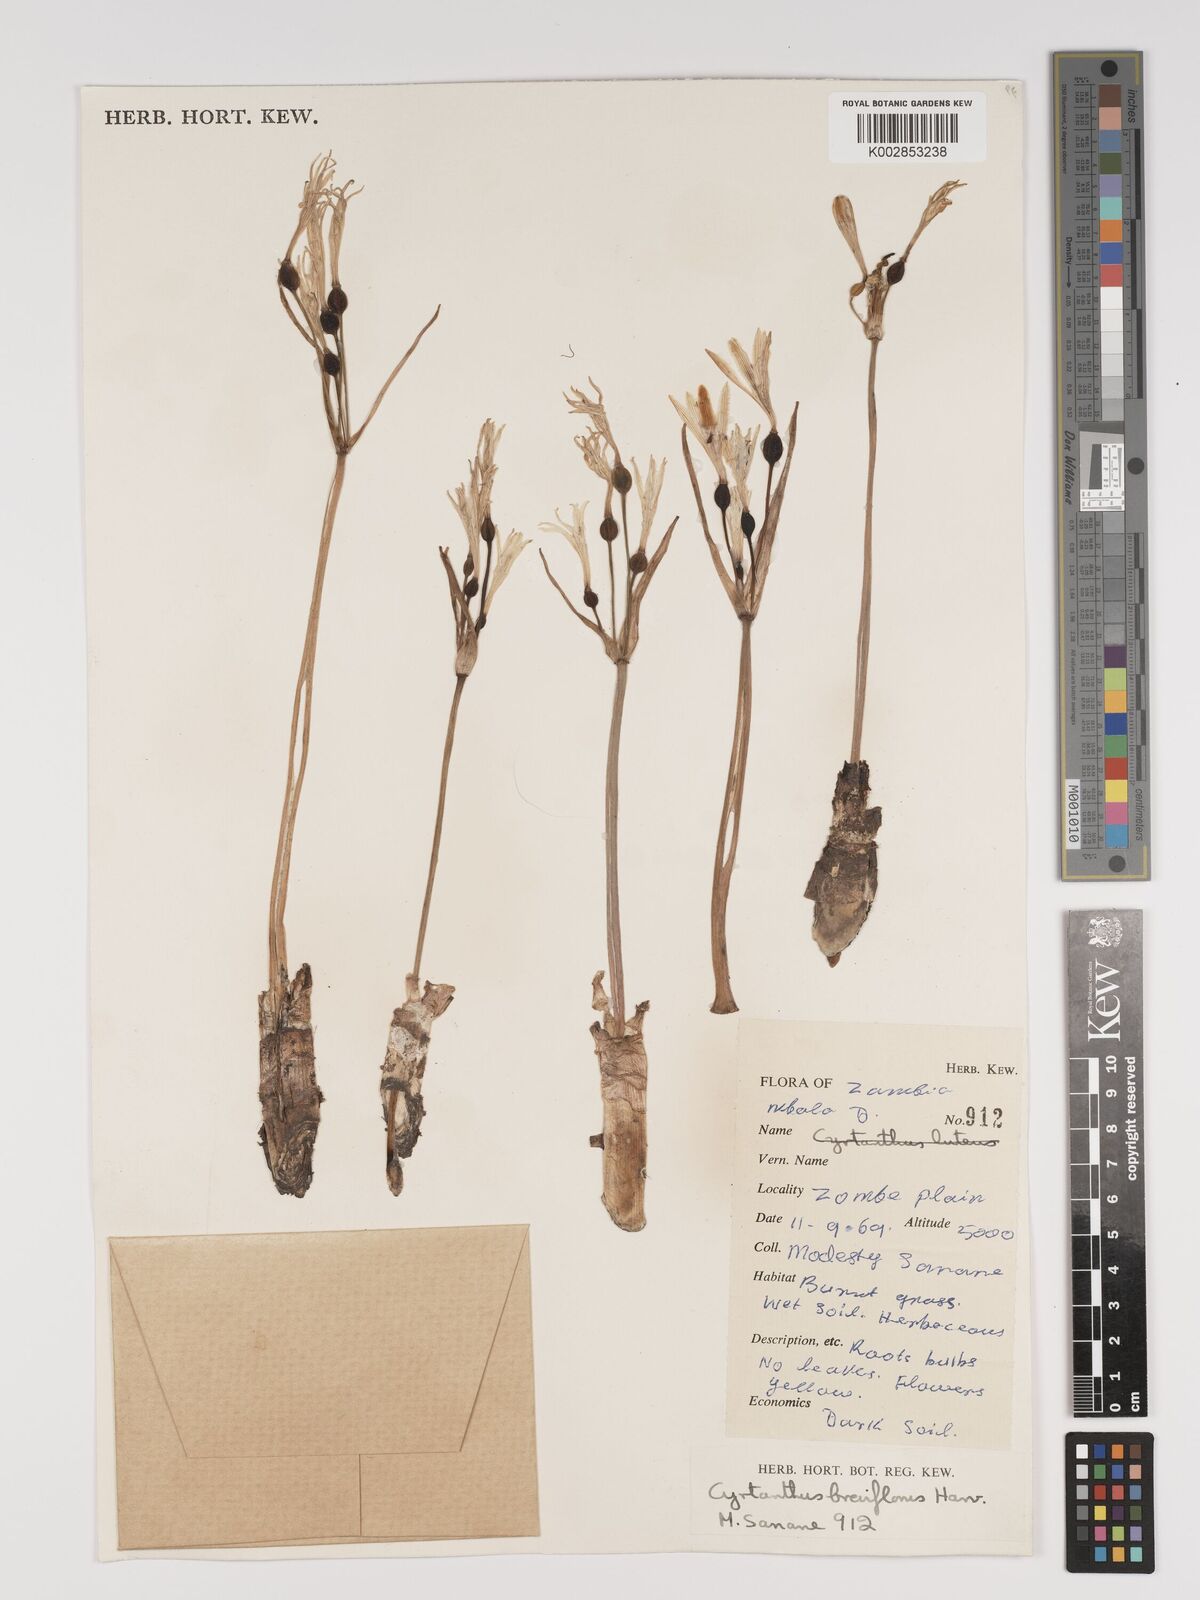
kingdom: Plantae
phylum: Tracheophyta
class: Liliopsida
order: Asparagales
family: Amaryllidaceae
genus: Cyrtanthus
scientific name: Cyrtanthus breviflorus
